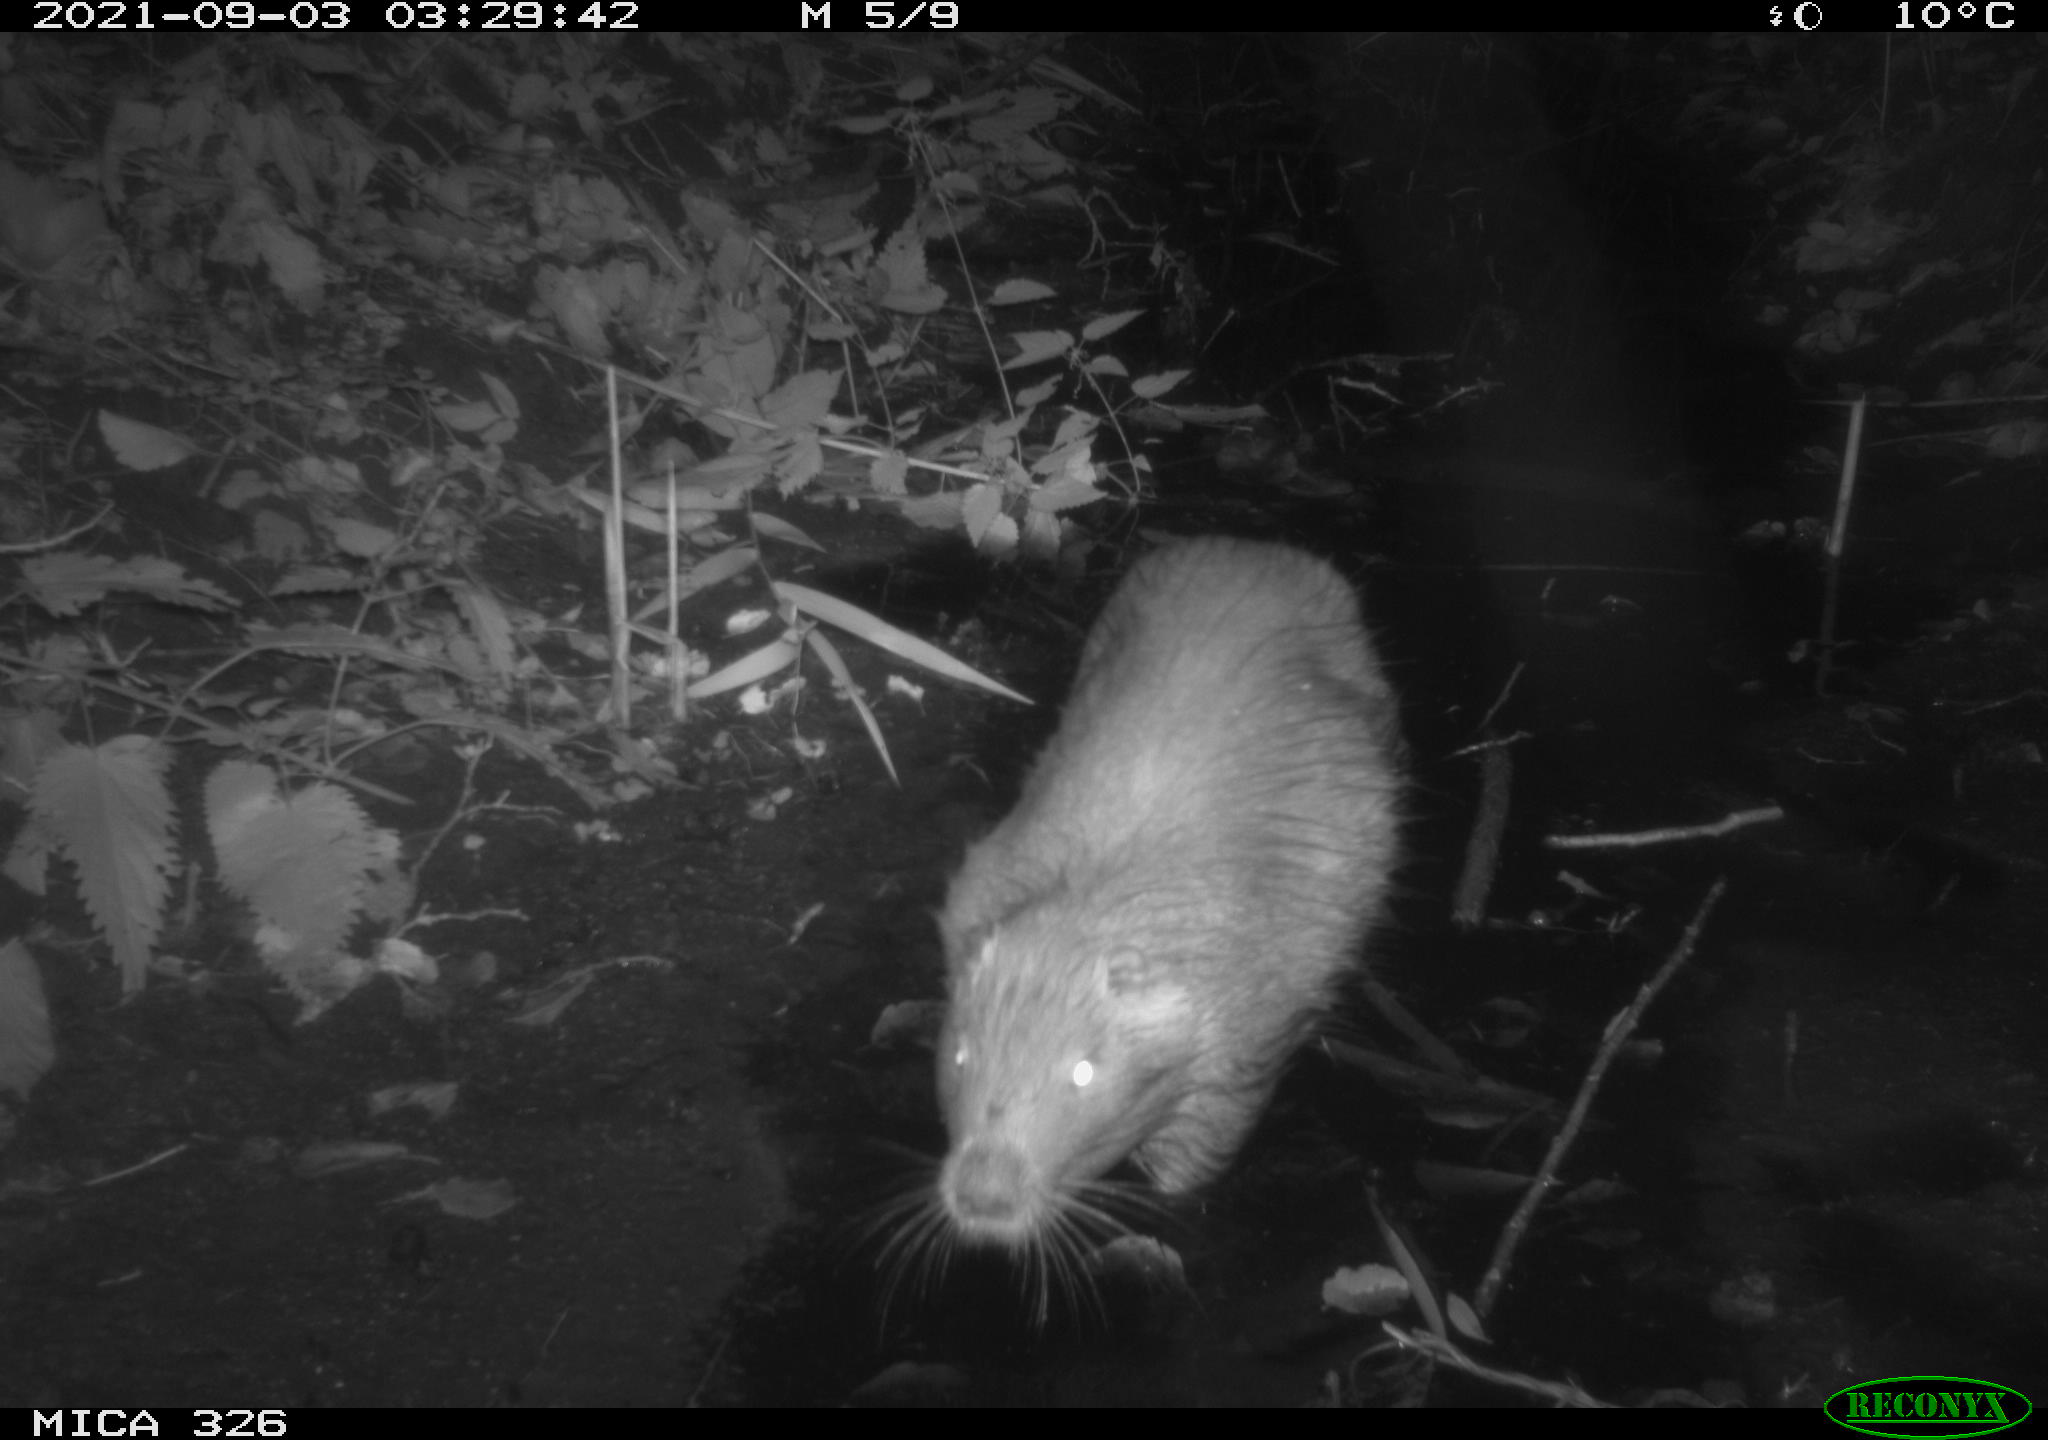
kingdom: Animalia
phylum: Chordata
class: Mammalia
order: Rodentia
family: Myocastoridae
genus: Myocastor
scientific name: Myocastor coypus
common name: Coypu
